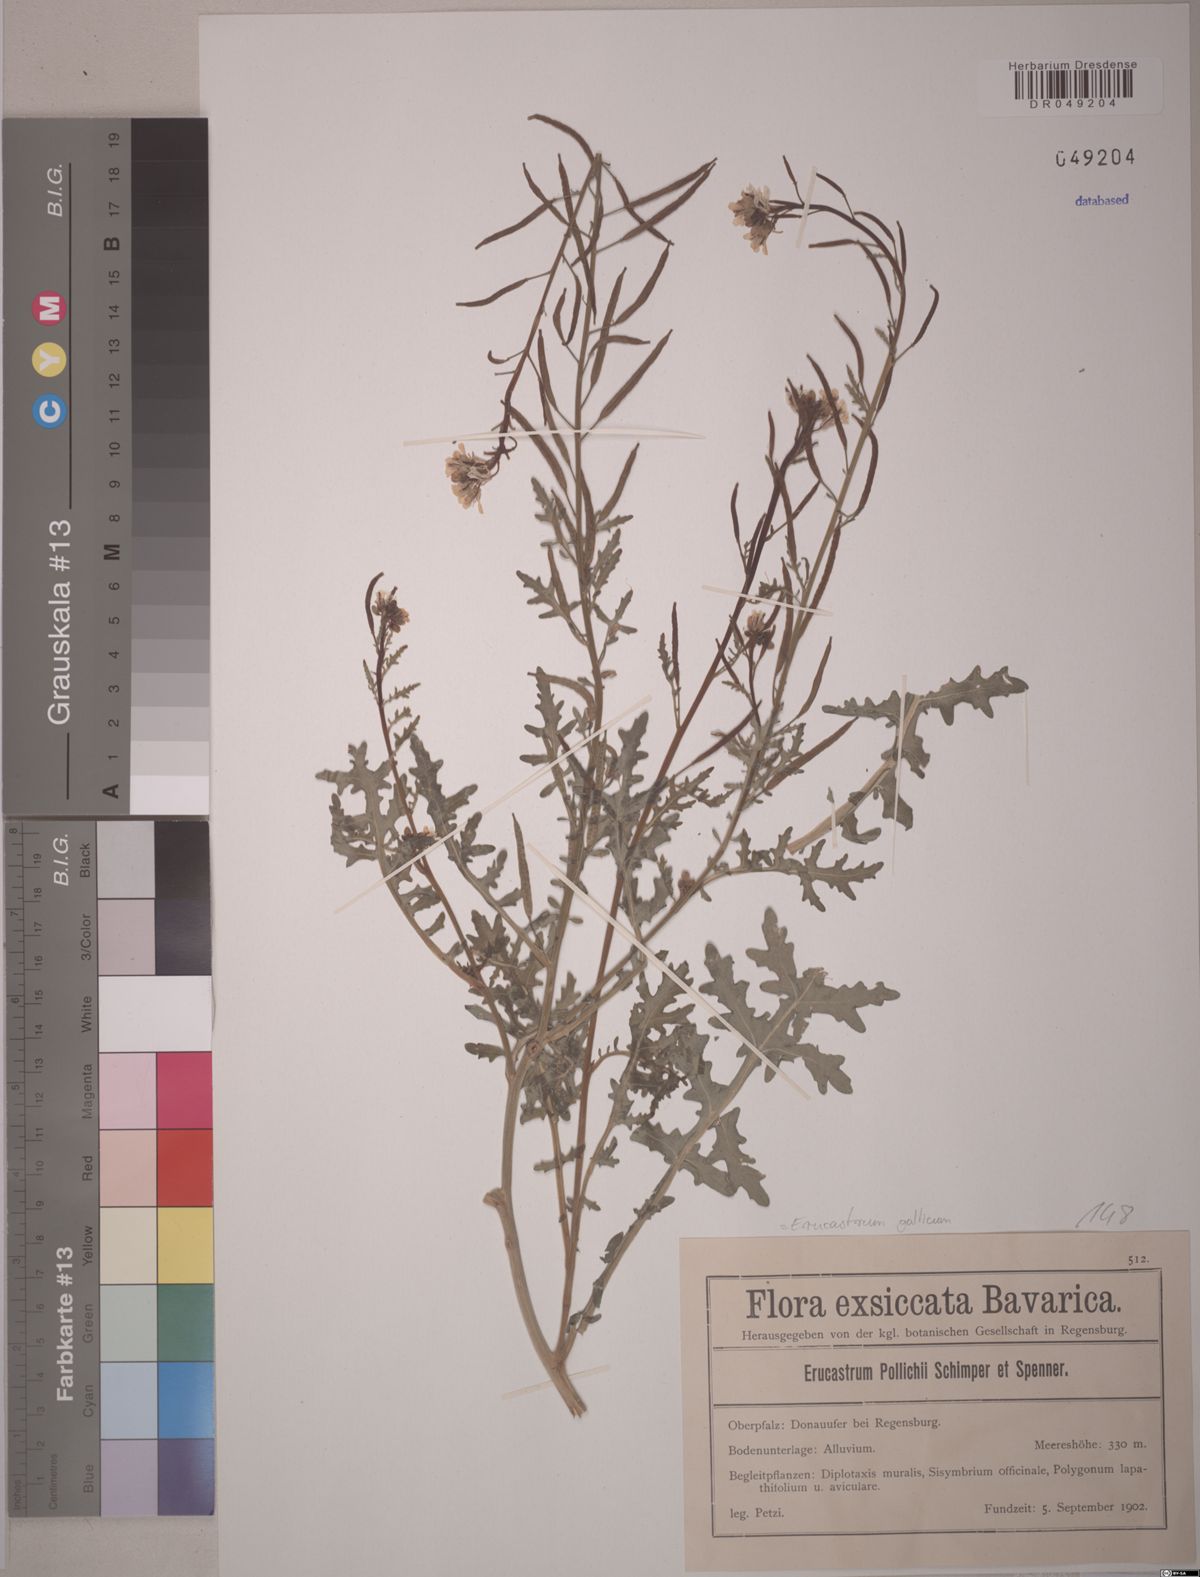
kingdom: Plantae
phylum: Tracheophyta
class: Magnoliopsida
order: Brassicales
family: Brassicaceae
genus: Erucastrum
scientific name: Erucastrum gallicum
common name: Hairy rocket
